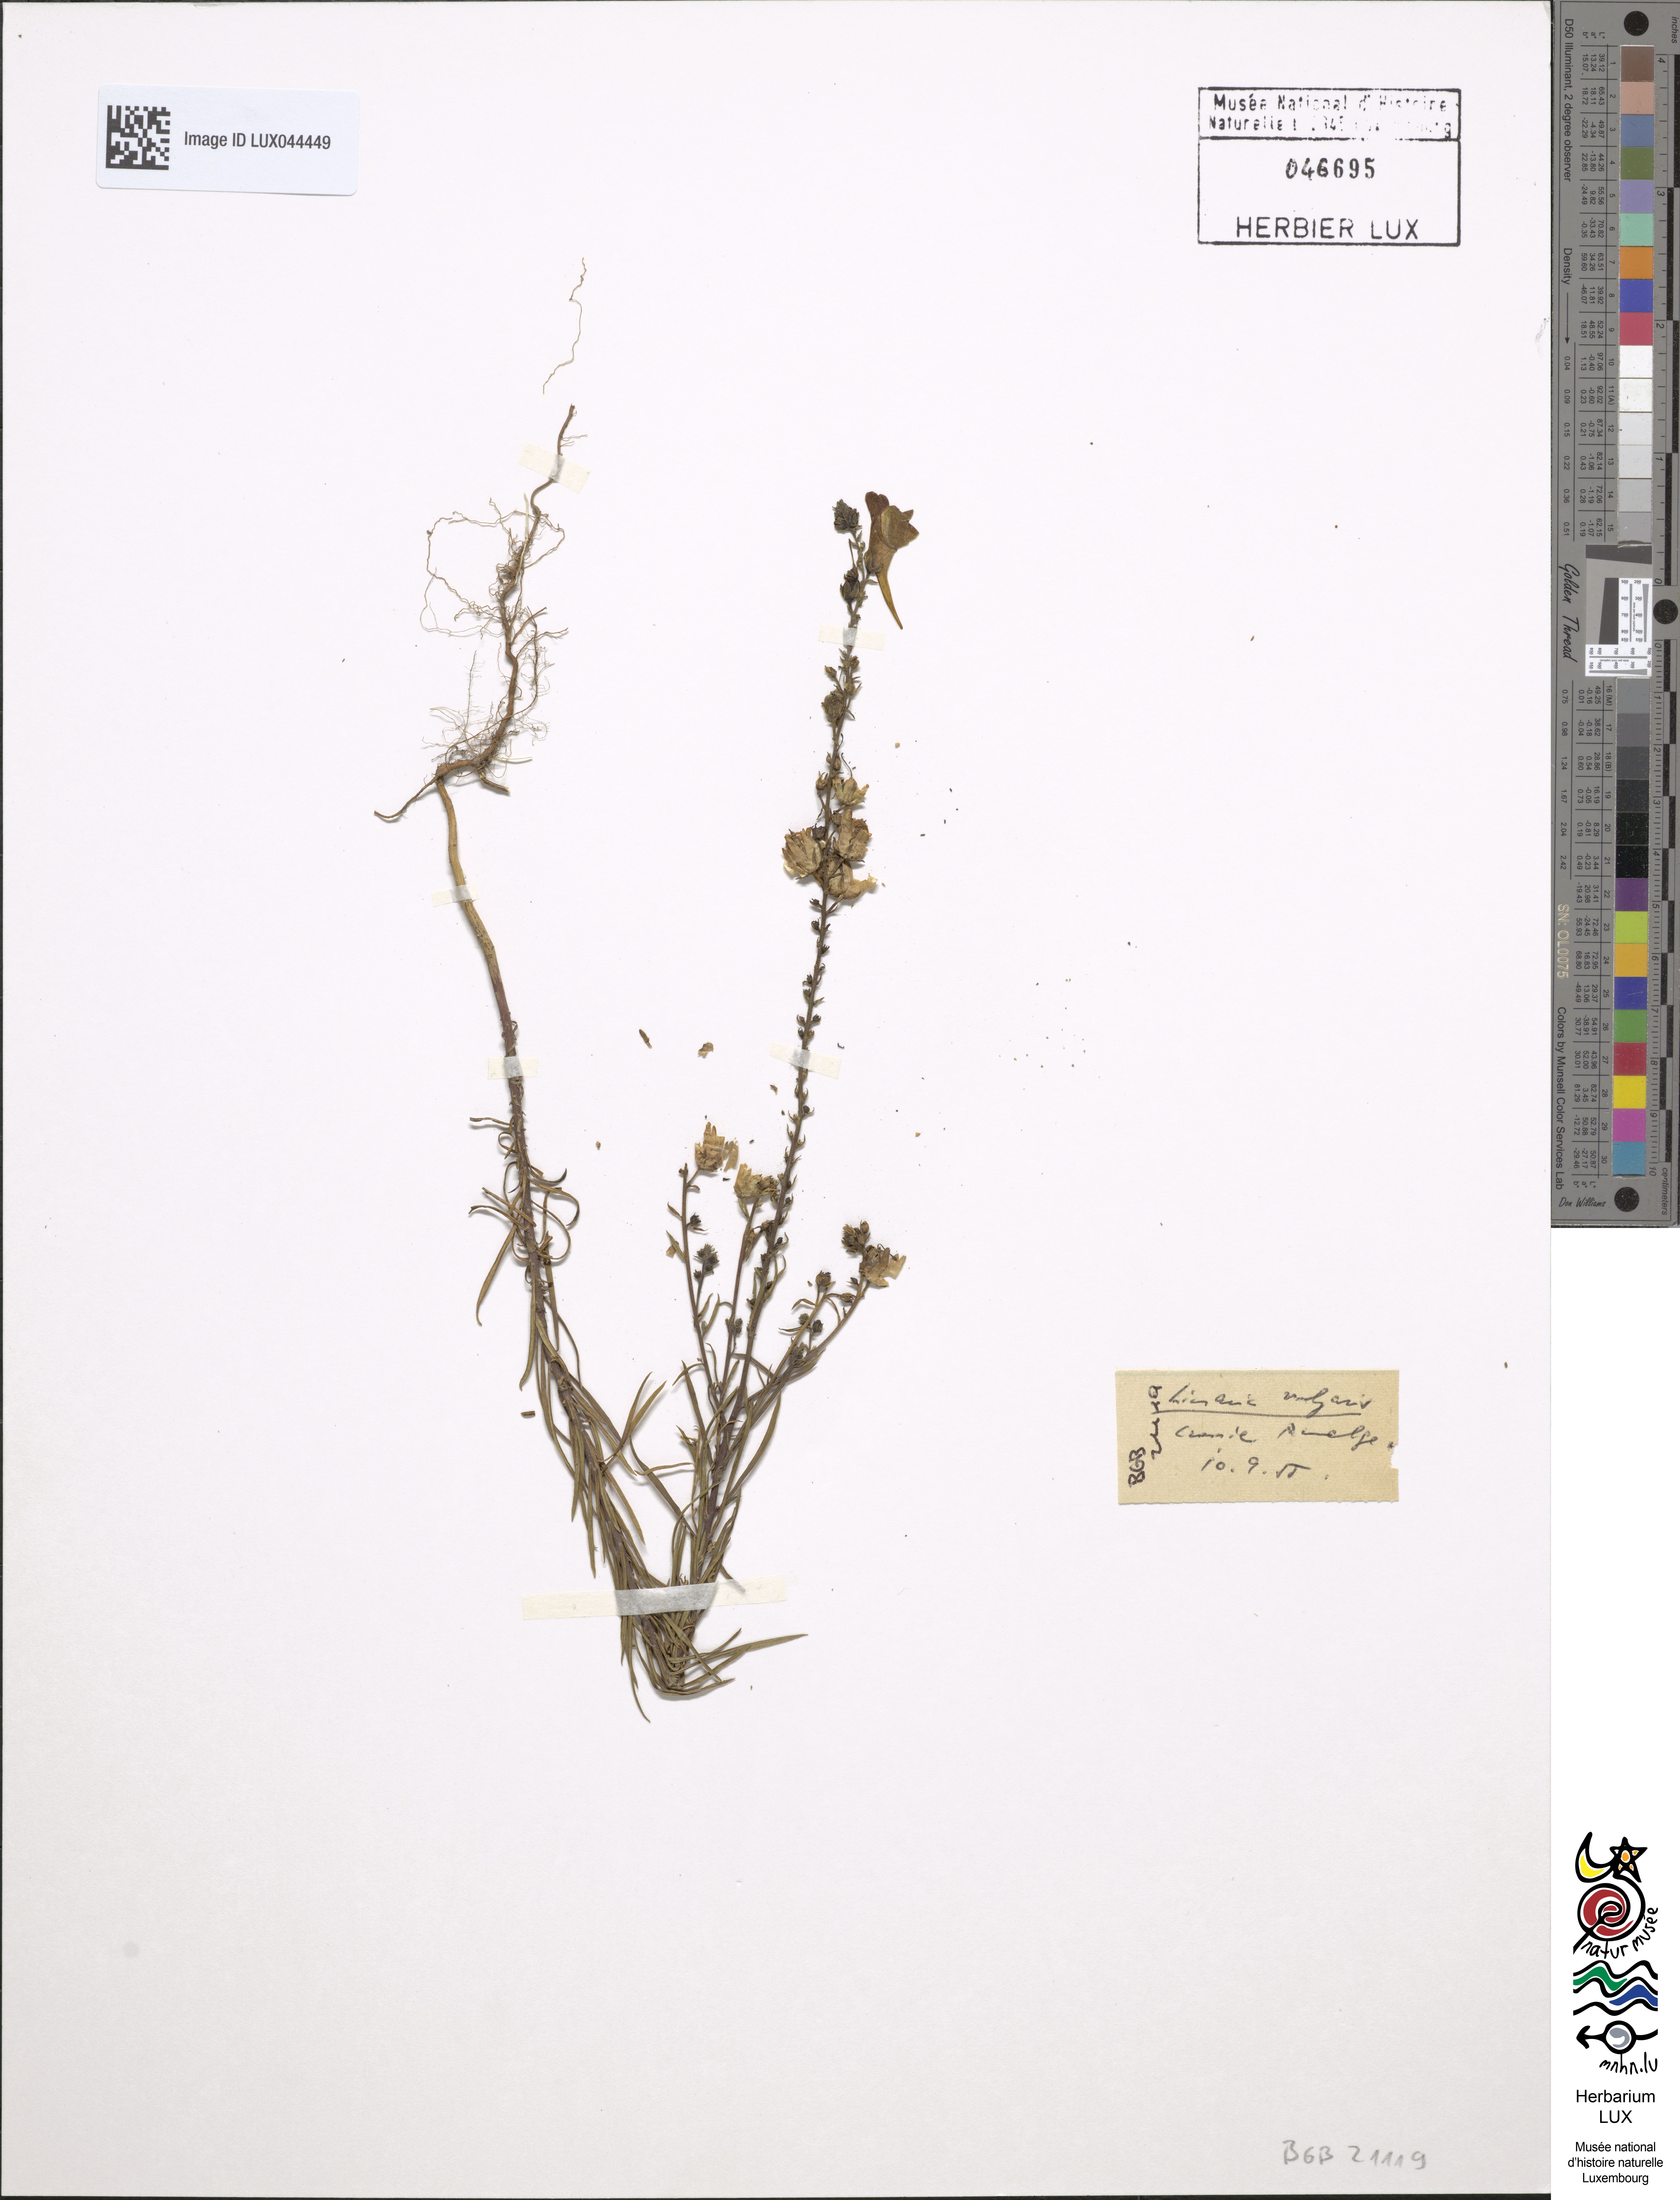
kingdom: Plantae
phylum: Tracheophyta
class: Magnoliopsida
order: Lamiales
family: Plantaginaceae
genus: Linaria
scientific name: Linaria vulgaris
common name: Butter and eggs
